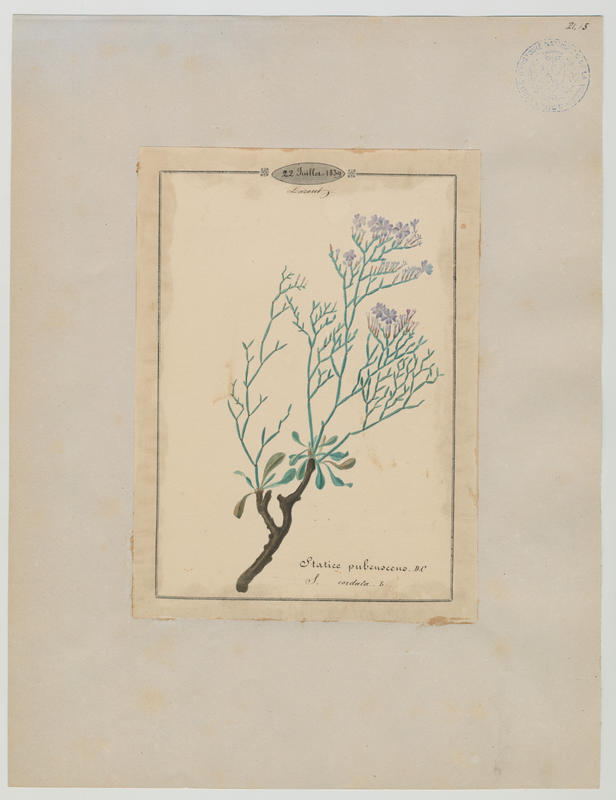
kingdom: Plantae
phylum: Tracheophyta
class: Magnoliopsida
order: Caryophyllales
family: Plumbaginaceae
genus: Limonium
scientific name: Limonium cordatum
